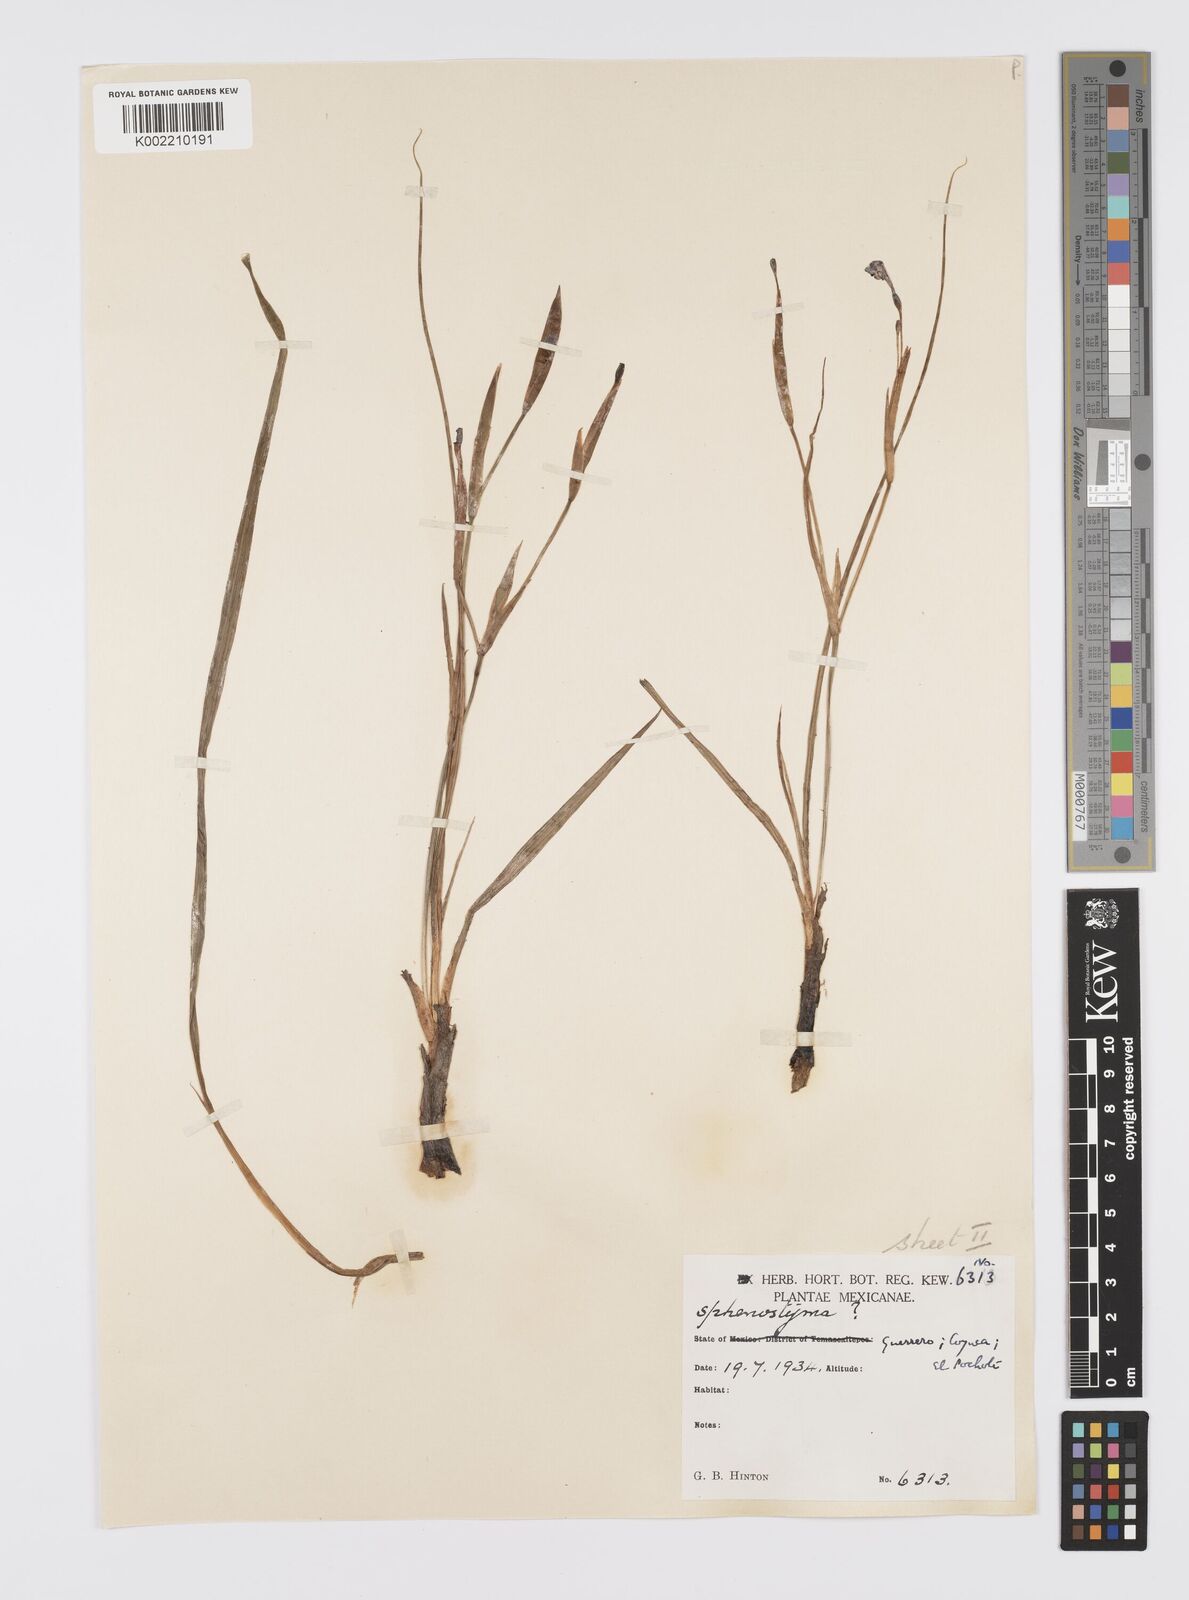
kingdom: Plantae
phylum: Tracheophyta
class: Liliopsida
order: Asparagales
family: Iridaceae
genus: Gelasine
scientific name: Gelasine
